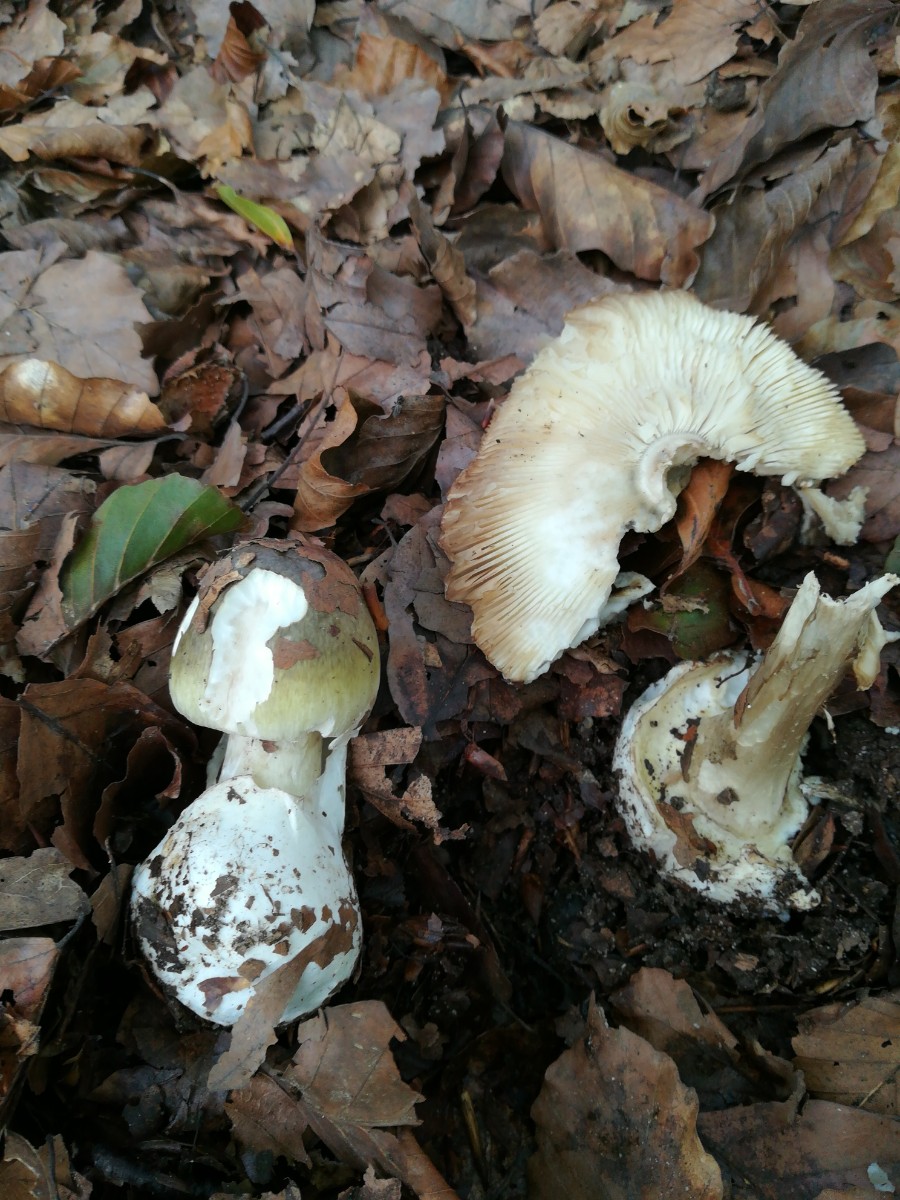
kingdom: Fungi
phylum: Basidiomycota
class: Agaricomycetes
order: Agaricales
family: Amanitaceae
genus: Amanita
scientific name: Amanita phalloides
